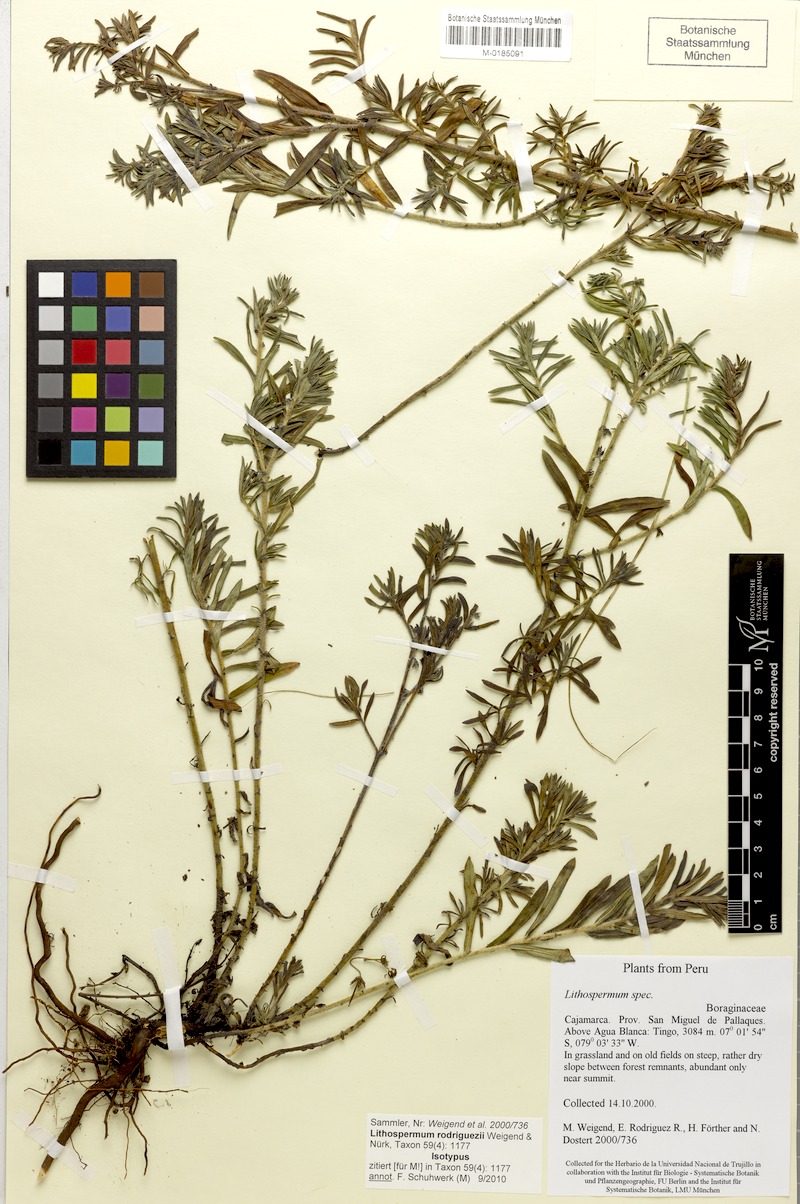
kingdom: Plantae
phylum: Tracheophyta
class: Magnoliopsida
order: Boraginales
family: Boraginaceae
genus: Lithospermum
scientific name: Lithospermum rodriguezii
